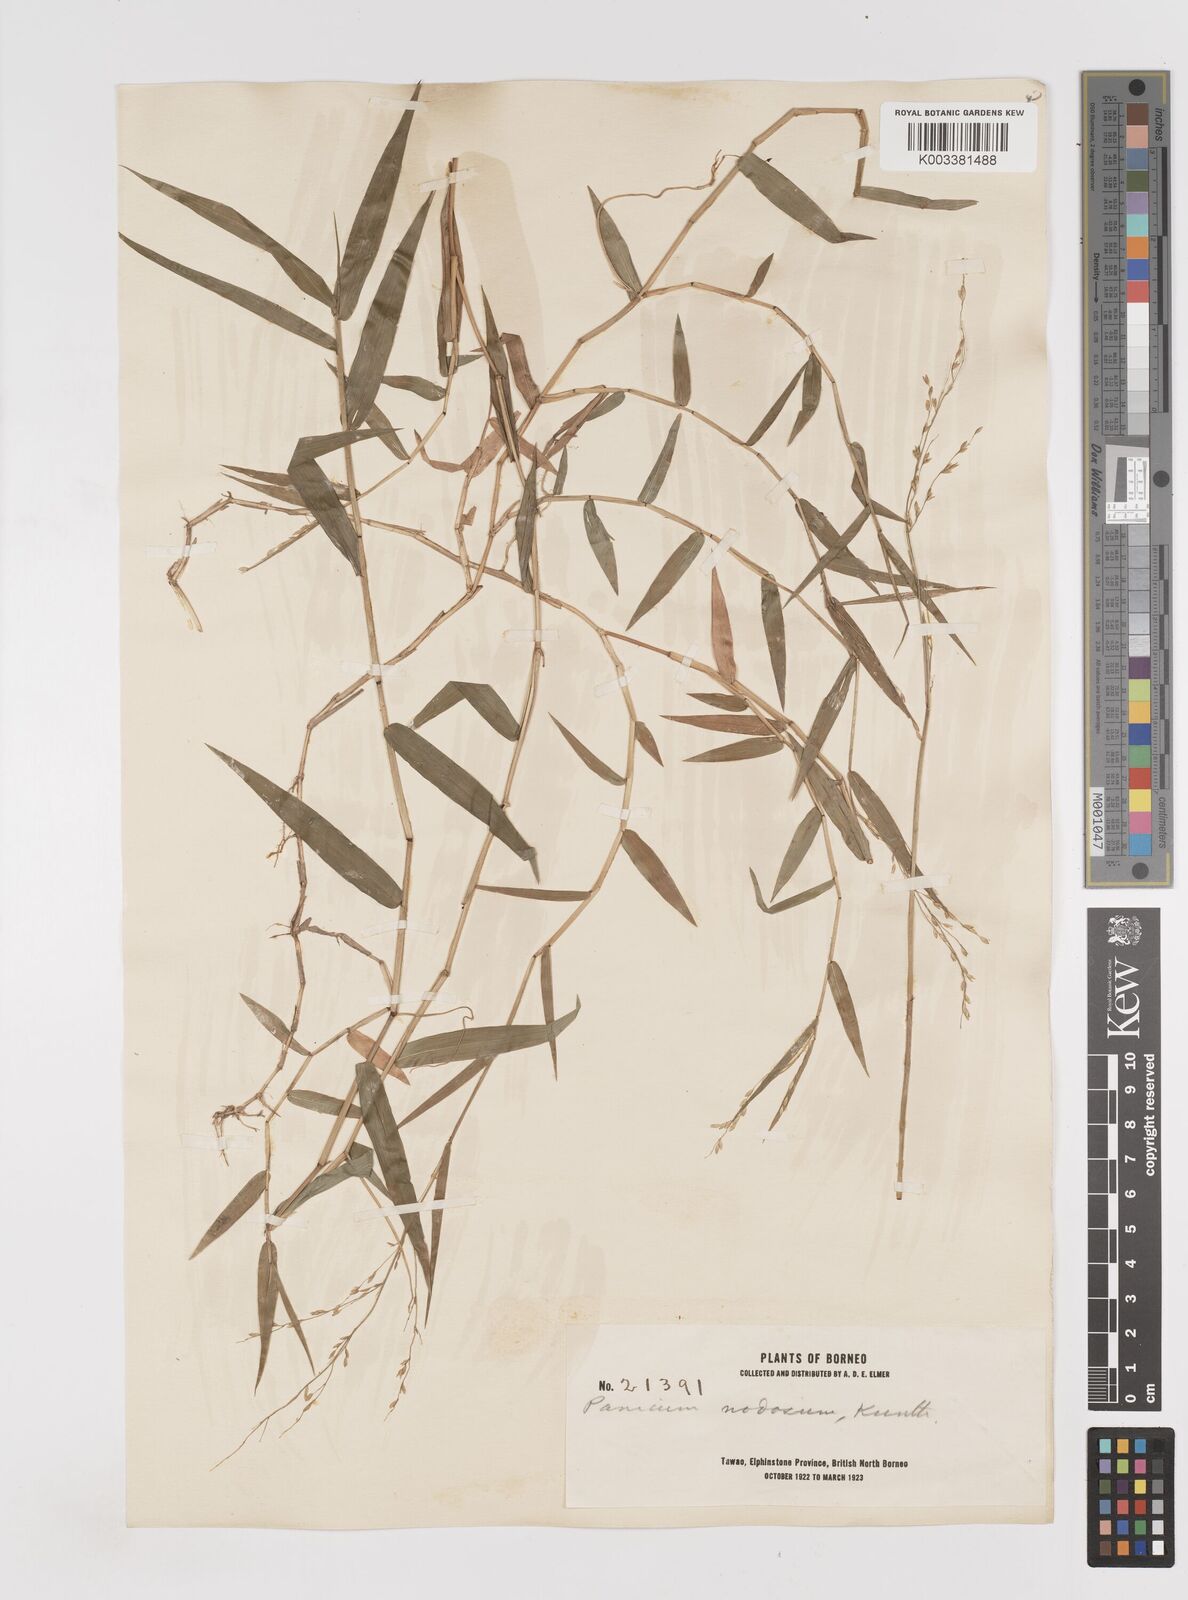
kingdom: Plantae
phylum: Tracheophyta
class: Liliopsida
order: Poales
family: Poaceae
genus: Ottochloa
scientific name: Ottochloa nodosa
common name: Slender-panic grass
